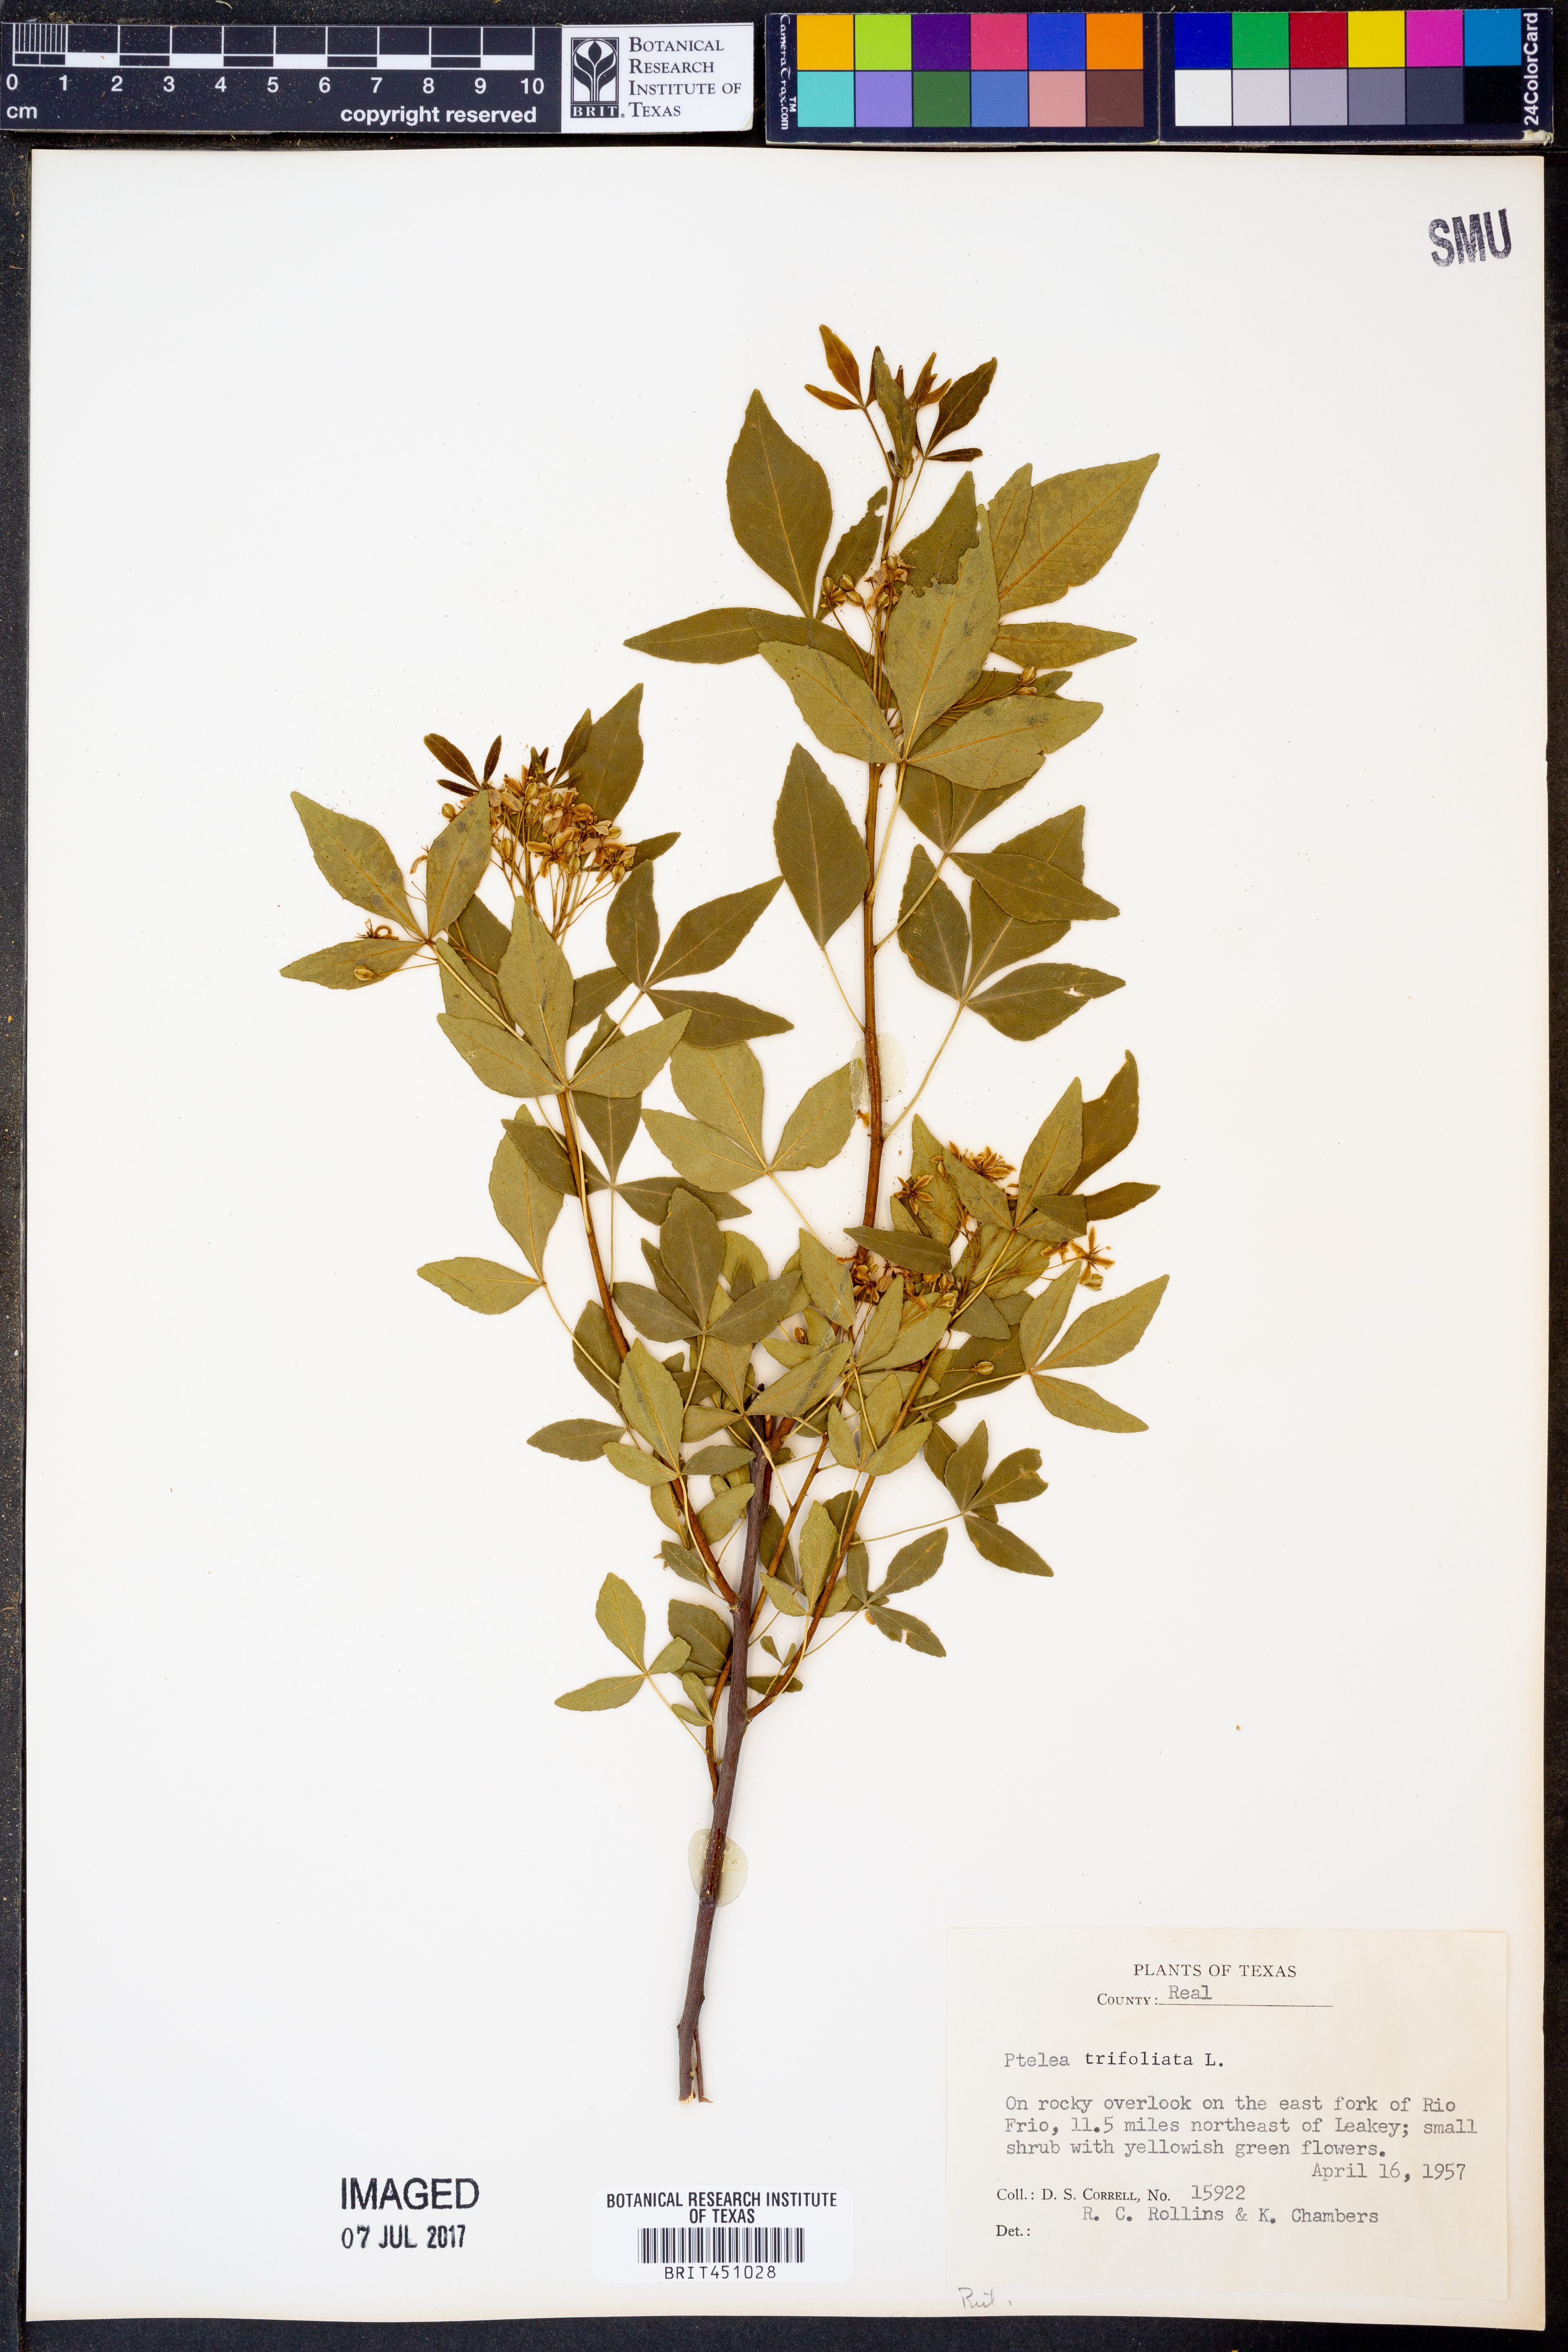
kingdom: Plantae
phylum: Tracheophyta
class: Magnoliopsida
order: Sapindales
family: Rutaceae
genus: Ptelea
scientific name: Ptelea trifoliata
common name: Common hop-tree
